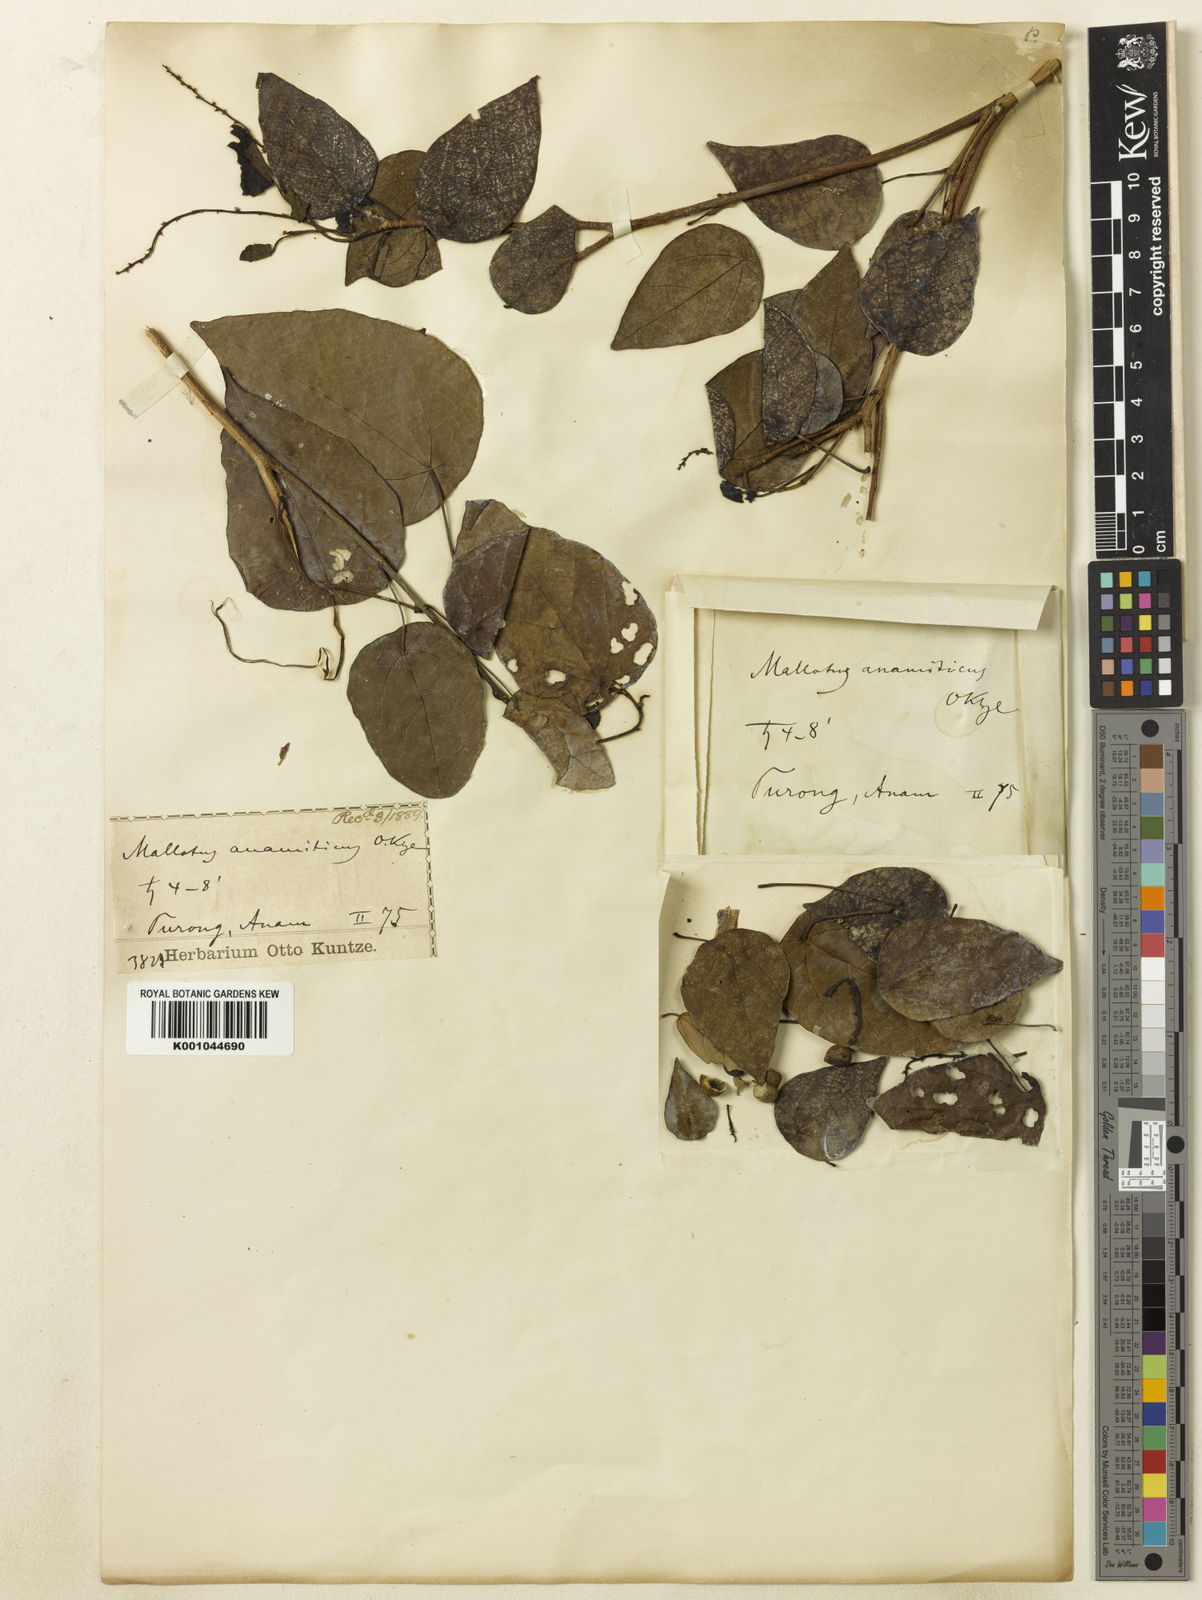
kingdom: Plantae
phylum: Tracheophyta
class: Magnoliopsida
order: Malpighiales
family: Euphorbiaceae
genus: Mallotus
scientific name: Mallotus floribundus
